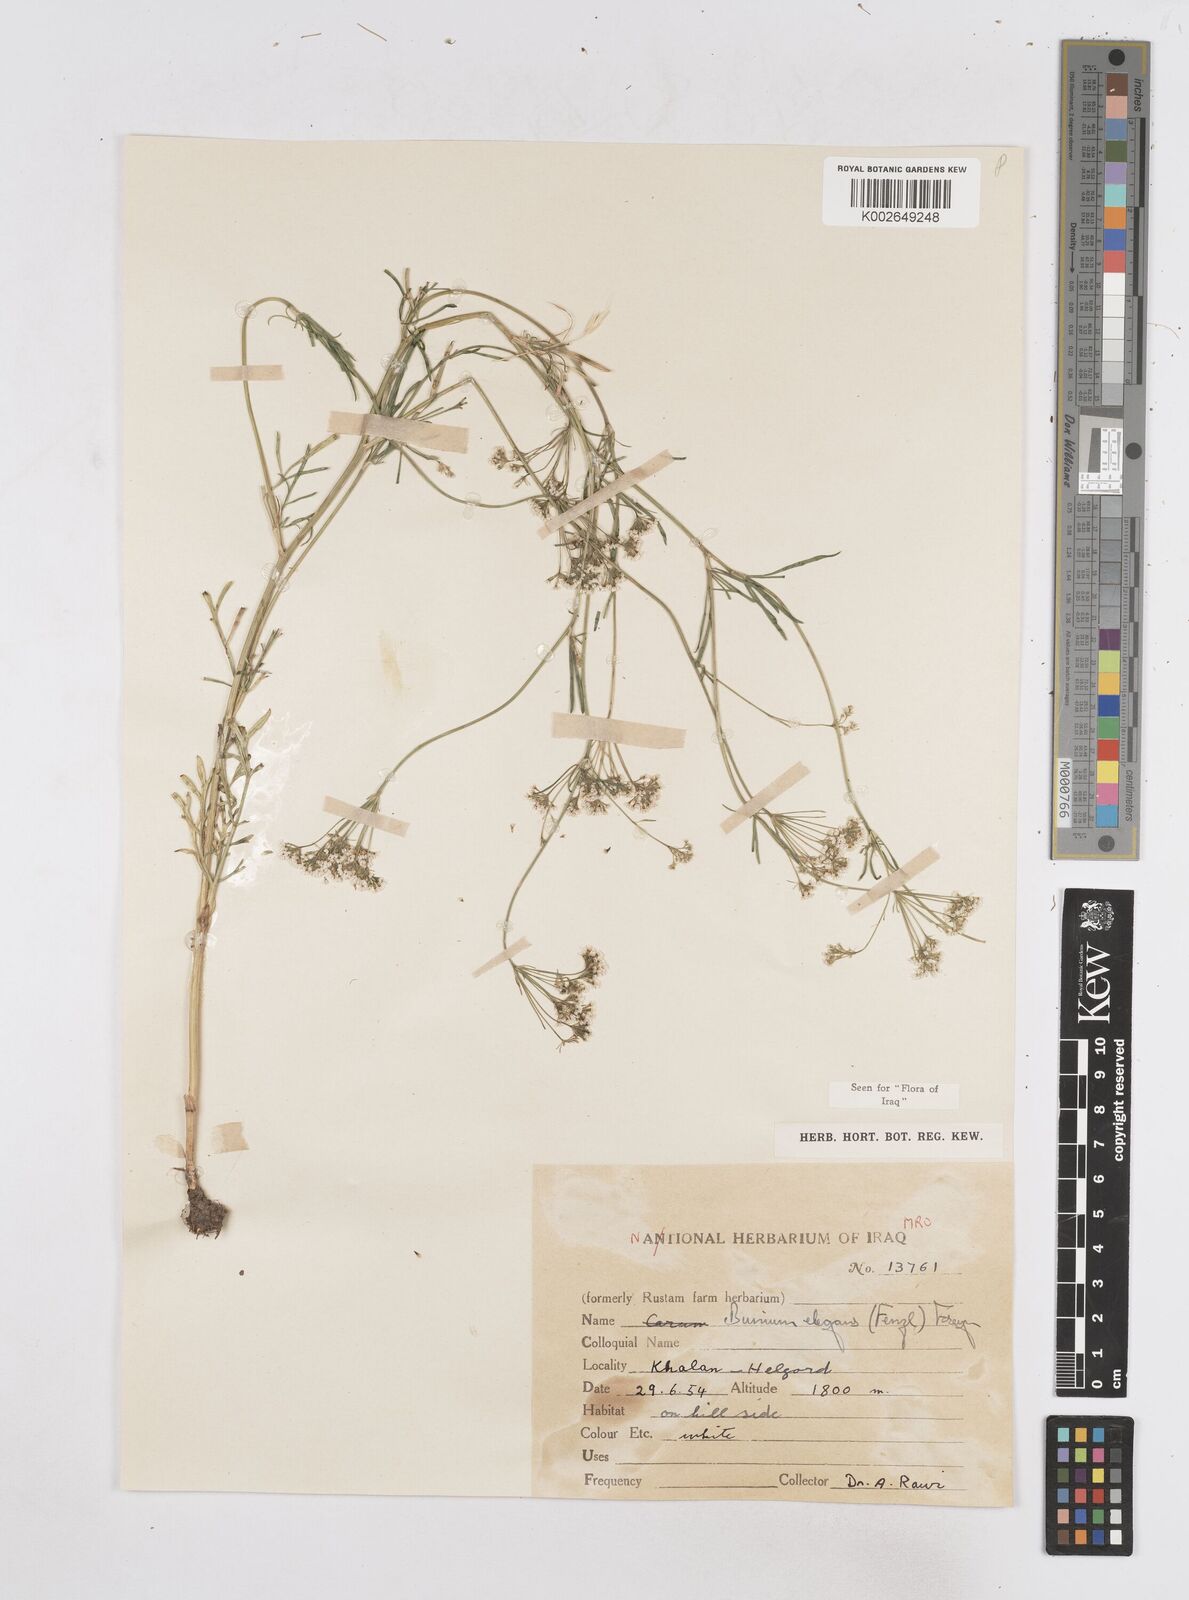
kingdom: Plantae
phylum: Tracheophyta
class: Magnoliopsida
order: Apiales
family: Apiaceae
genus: Bunium
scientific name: Bunium paucifolium
